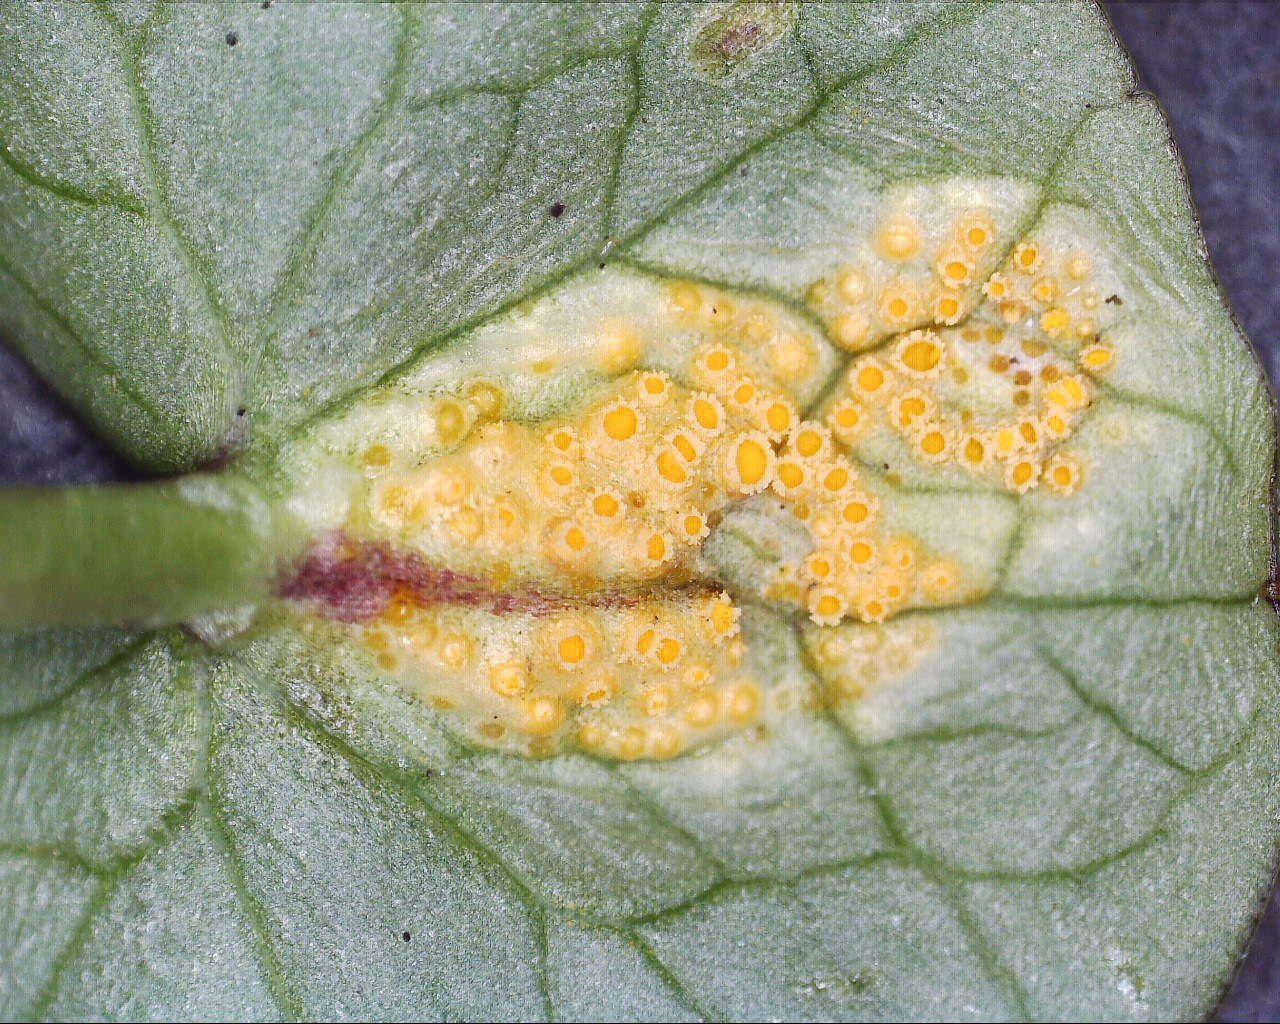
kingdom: Fungi
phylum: Basidiomycota
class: Pucciniomycetes
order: Pucciniales
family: Pucciniaceae
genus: Uromyces
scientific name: Uromyces dactylidis
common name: ranunkel-encellerust
